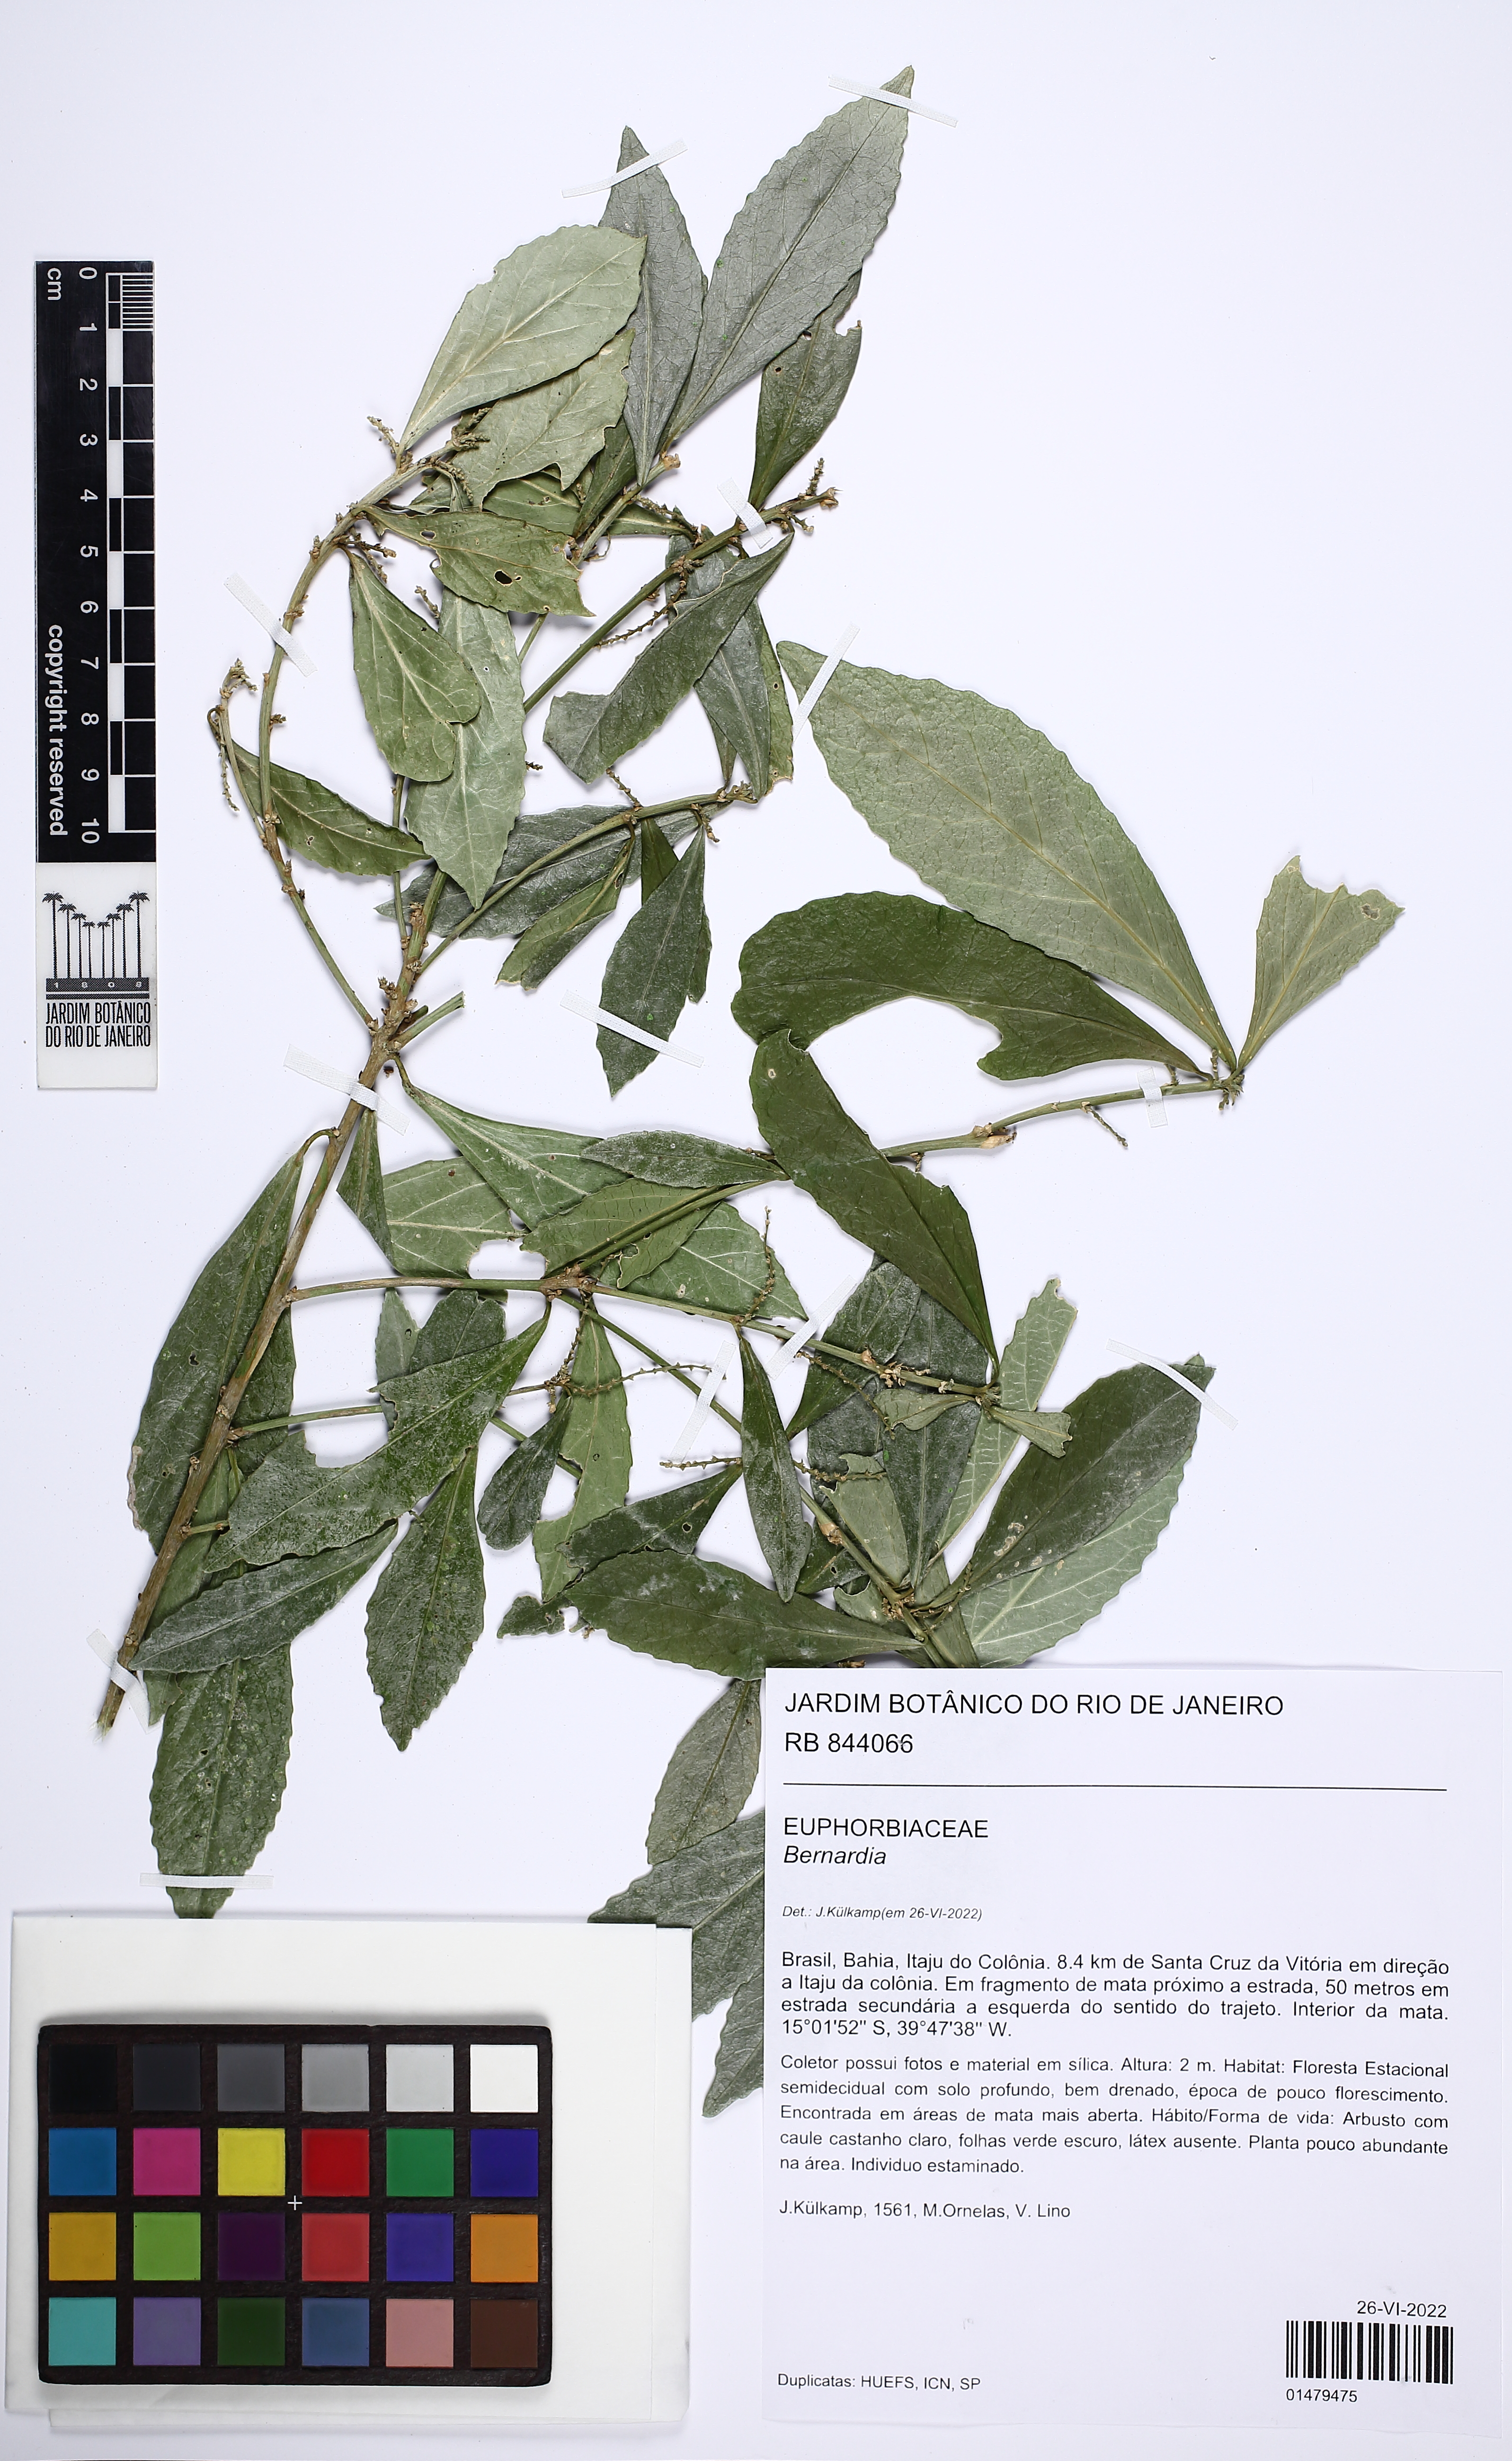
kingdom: Plantae
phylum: Tracheophyta
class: Magnoliopsida
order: Malpighiales
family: Euphorbiaceae
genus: Bernardia
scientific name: Bernardia
